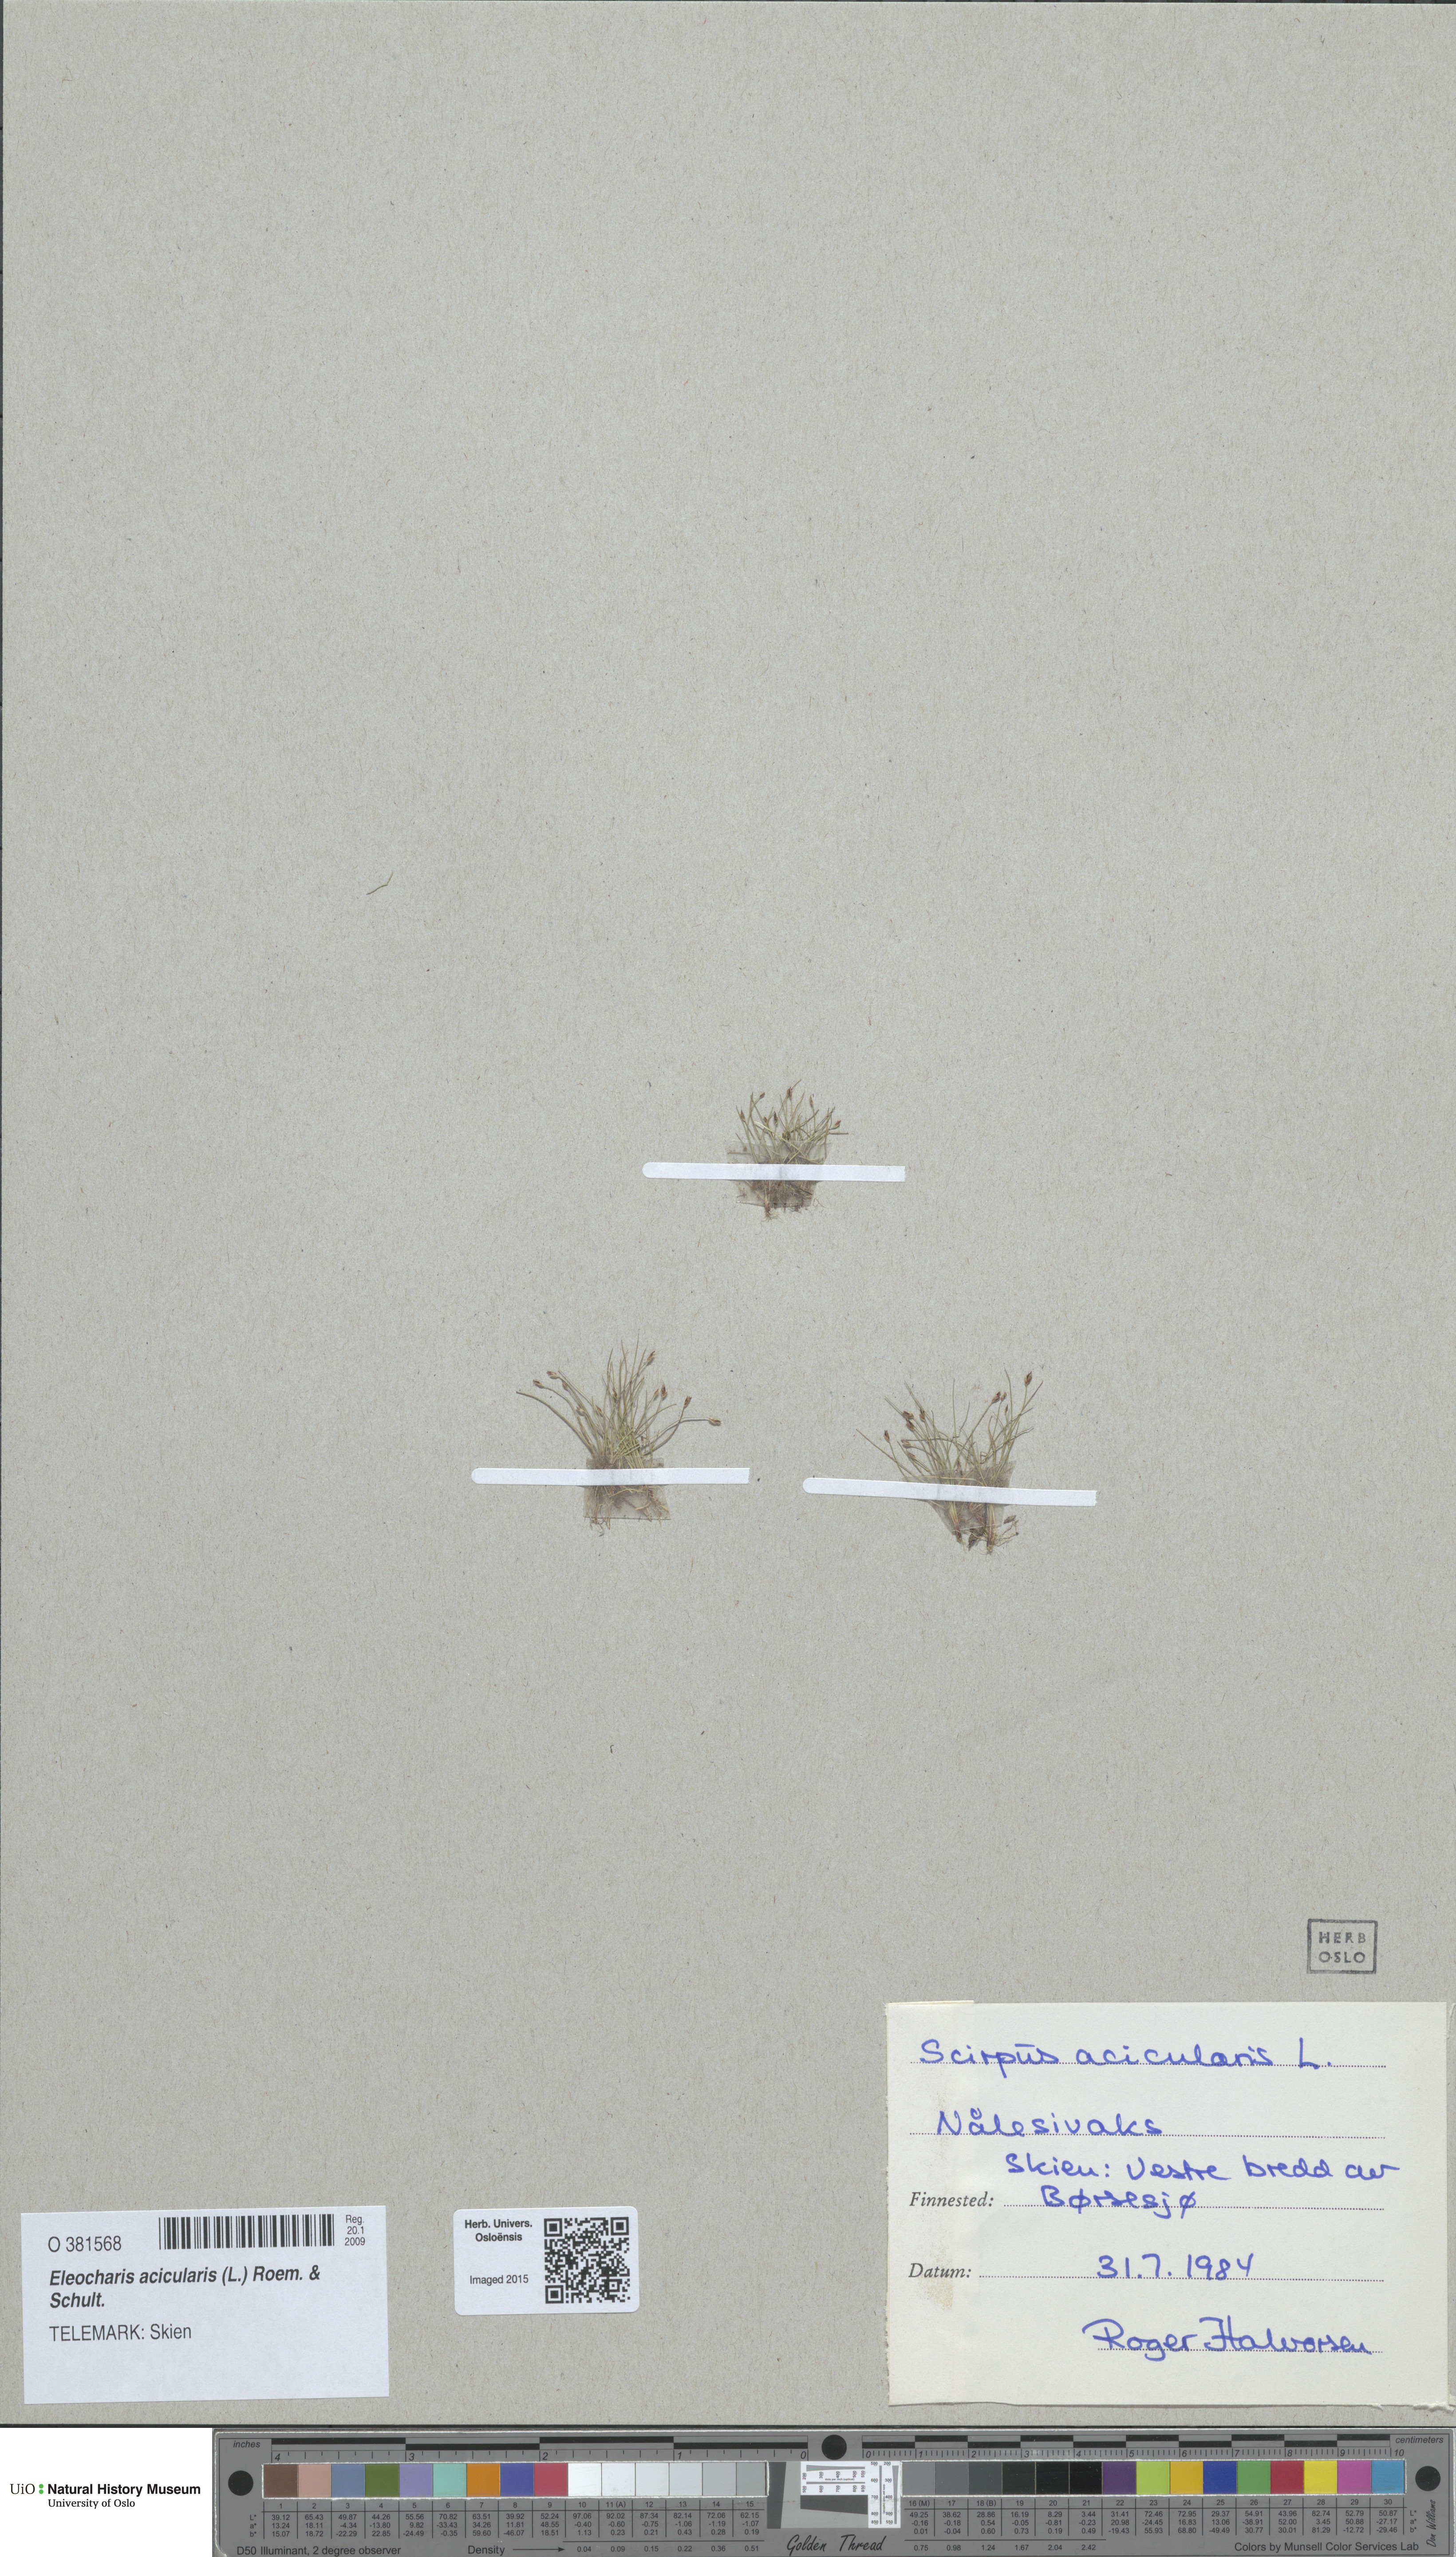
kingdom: Plantae
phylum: Tracheophyta
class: Liliopsida
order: Poales
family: Cyperaceae
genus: Eleocharis
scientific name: Eleocharis acicularis
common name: Needle spike-rush
